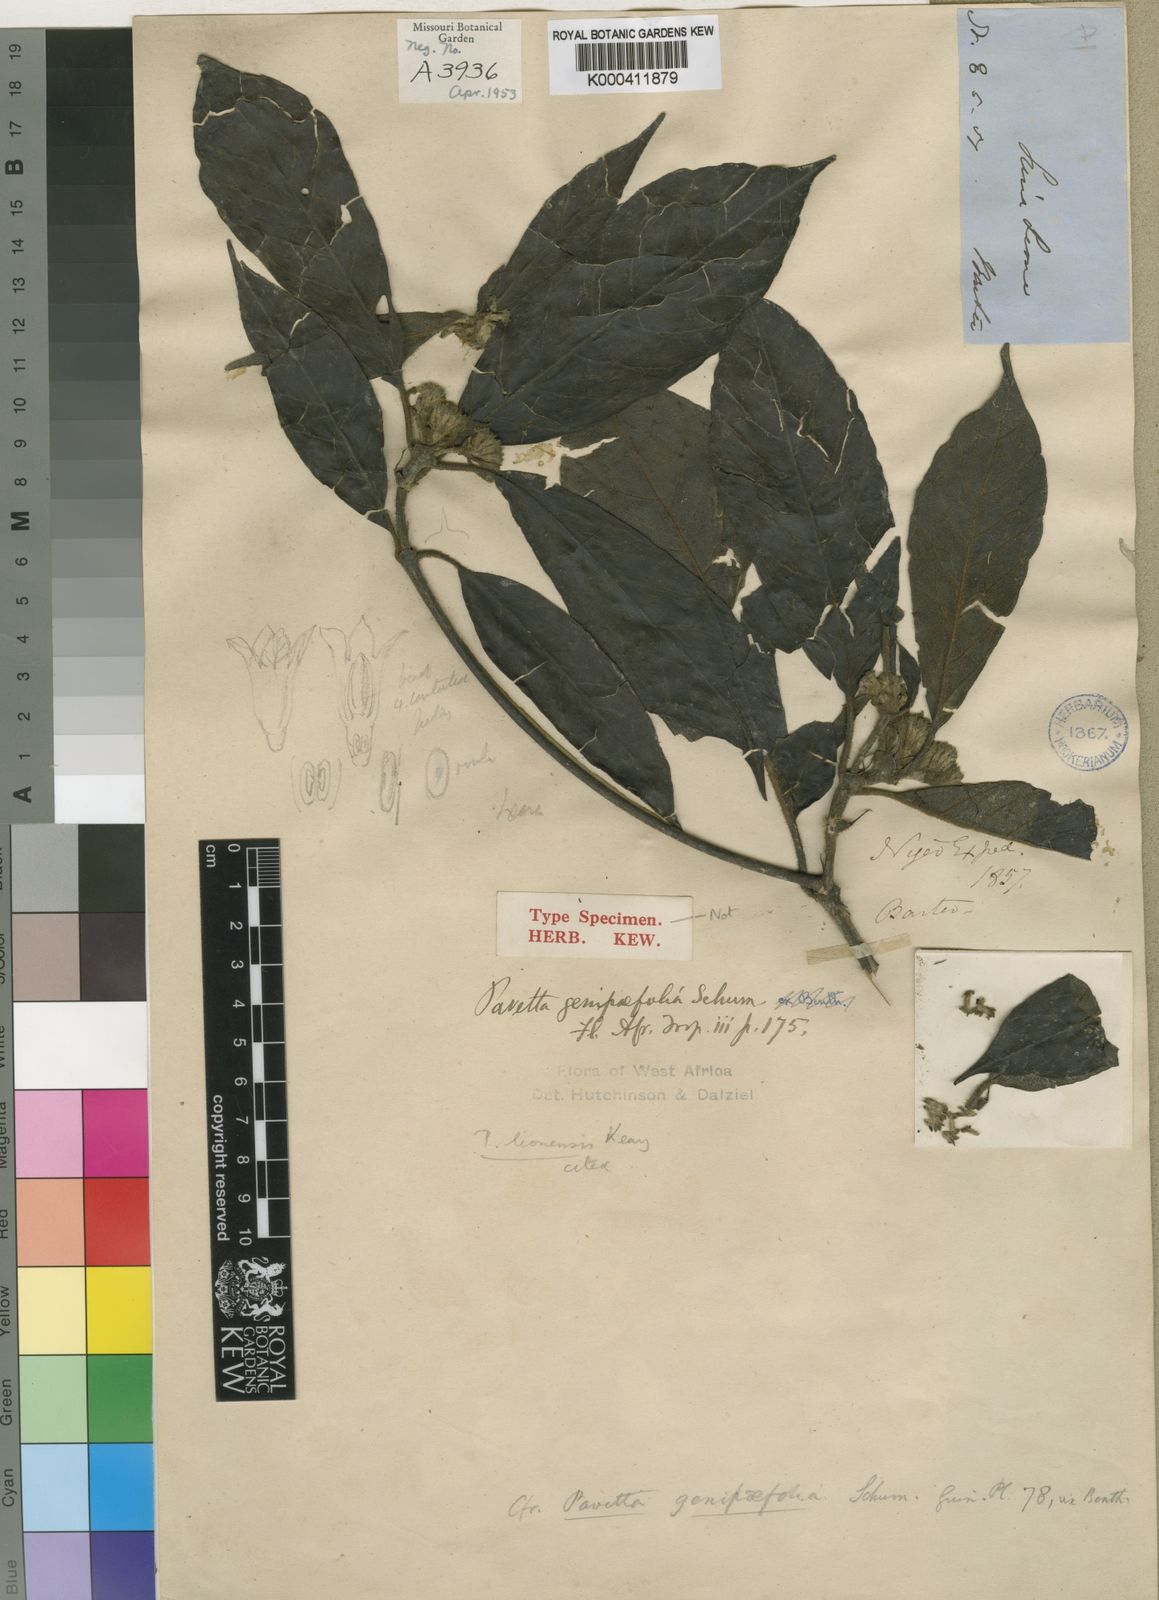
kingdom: Plantae
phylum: Tracheophyta
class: Magnoliopsida
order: Gentianales
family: Rubiaceae
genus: Pavetta
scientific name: Pavetta leonensis
